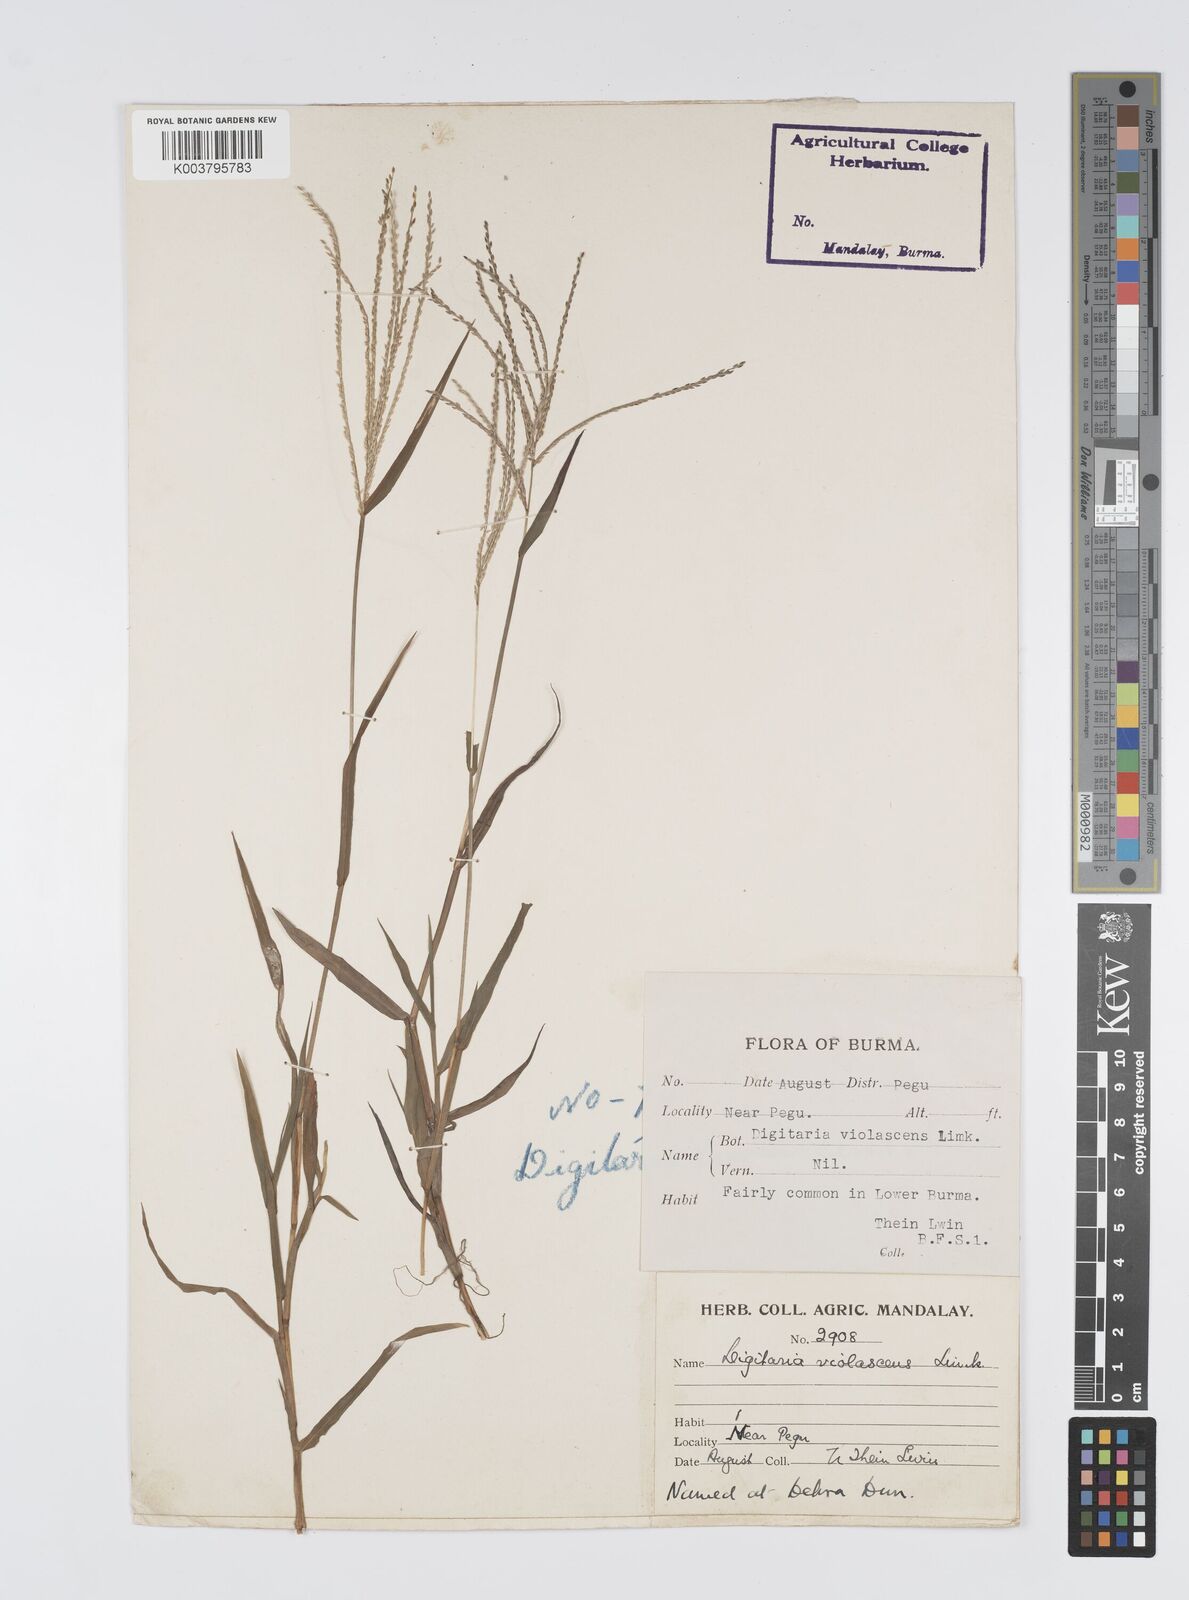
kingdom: Plantae
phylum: Tracheophyta
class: Liliopsida
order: Poales
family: Poaceae
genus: Digitaria
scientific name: Digitaria violascens
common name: Violet crabgrass
